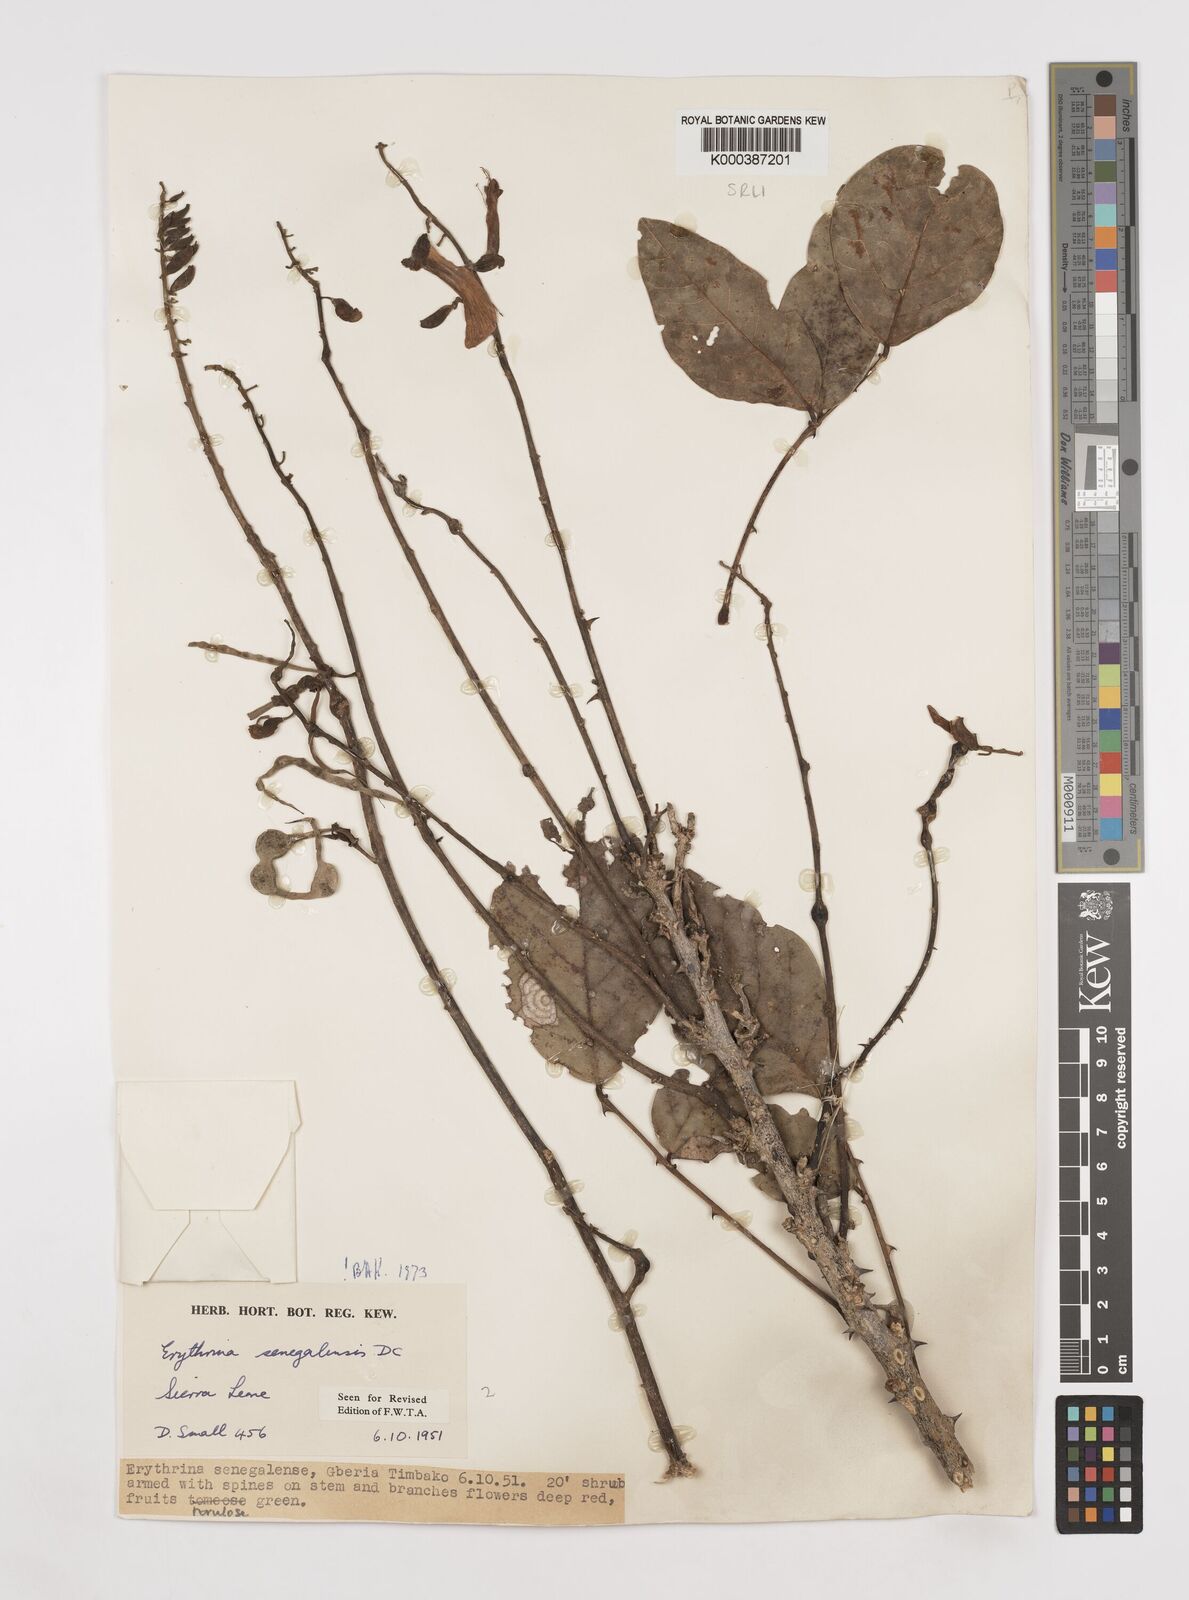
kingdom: Plantae
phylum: Tracheophyta
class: Magnoliopsida
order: Fabales
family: Fabaceae
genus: Erythrina
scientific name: Erythrina senegalensis
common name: Senegal coraltree
